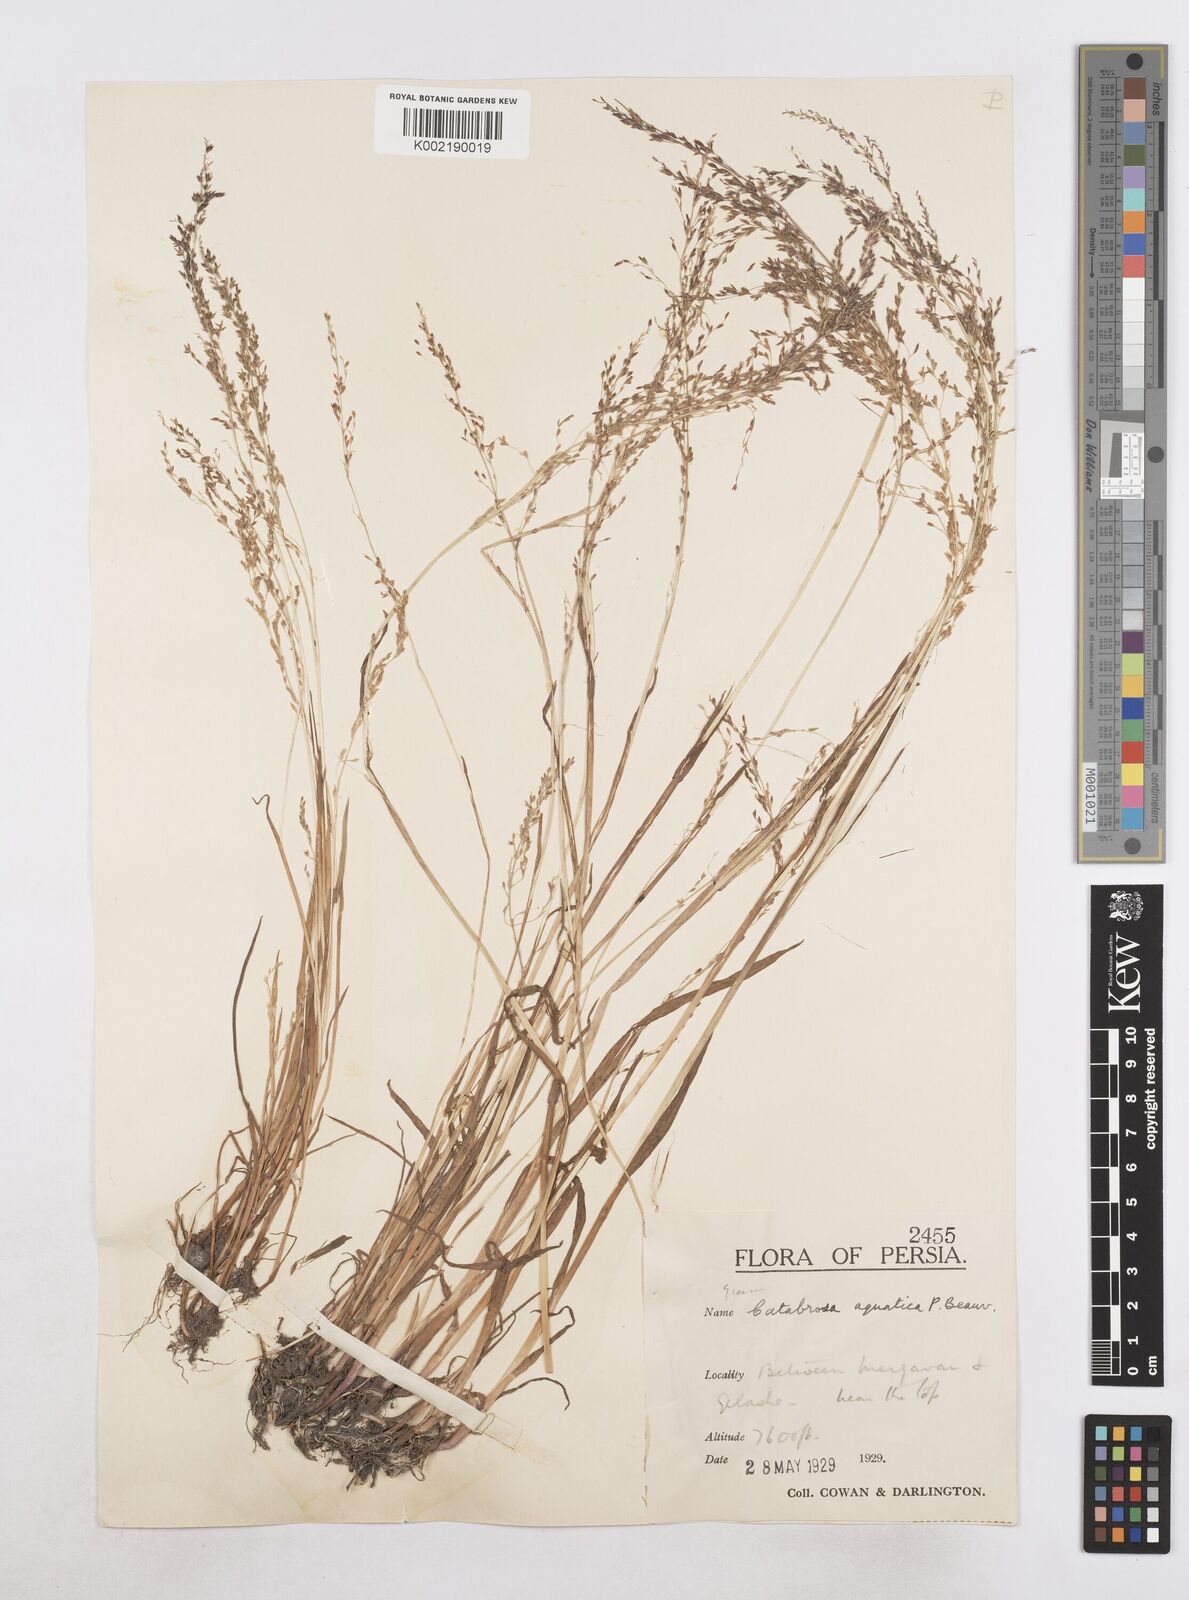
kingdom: Plantae
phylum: Tracheophyta
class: Liliopsida
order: Poales
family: Poaceae
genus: Catabrosa
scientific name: Catabrosa aquatica
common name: Whorl-grass
